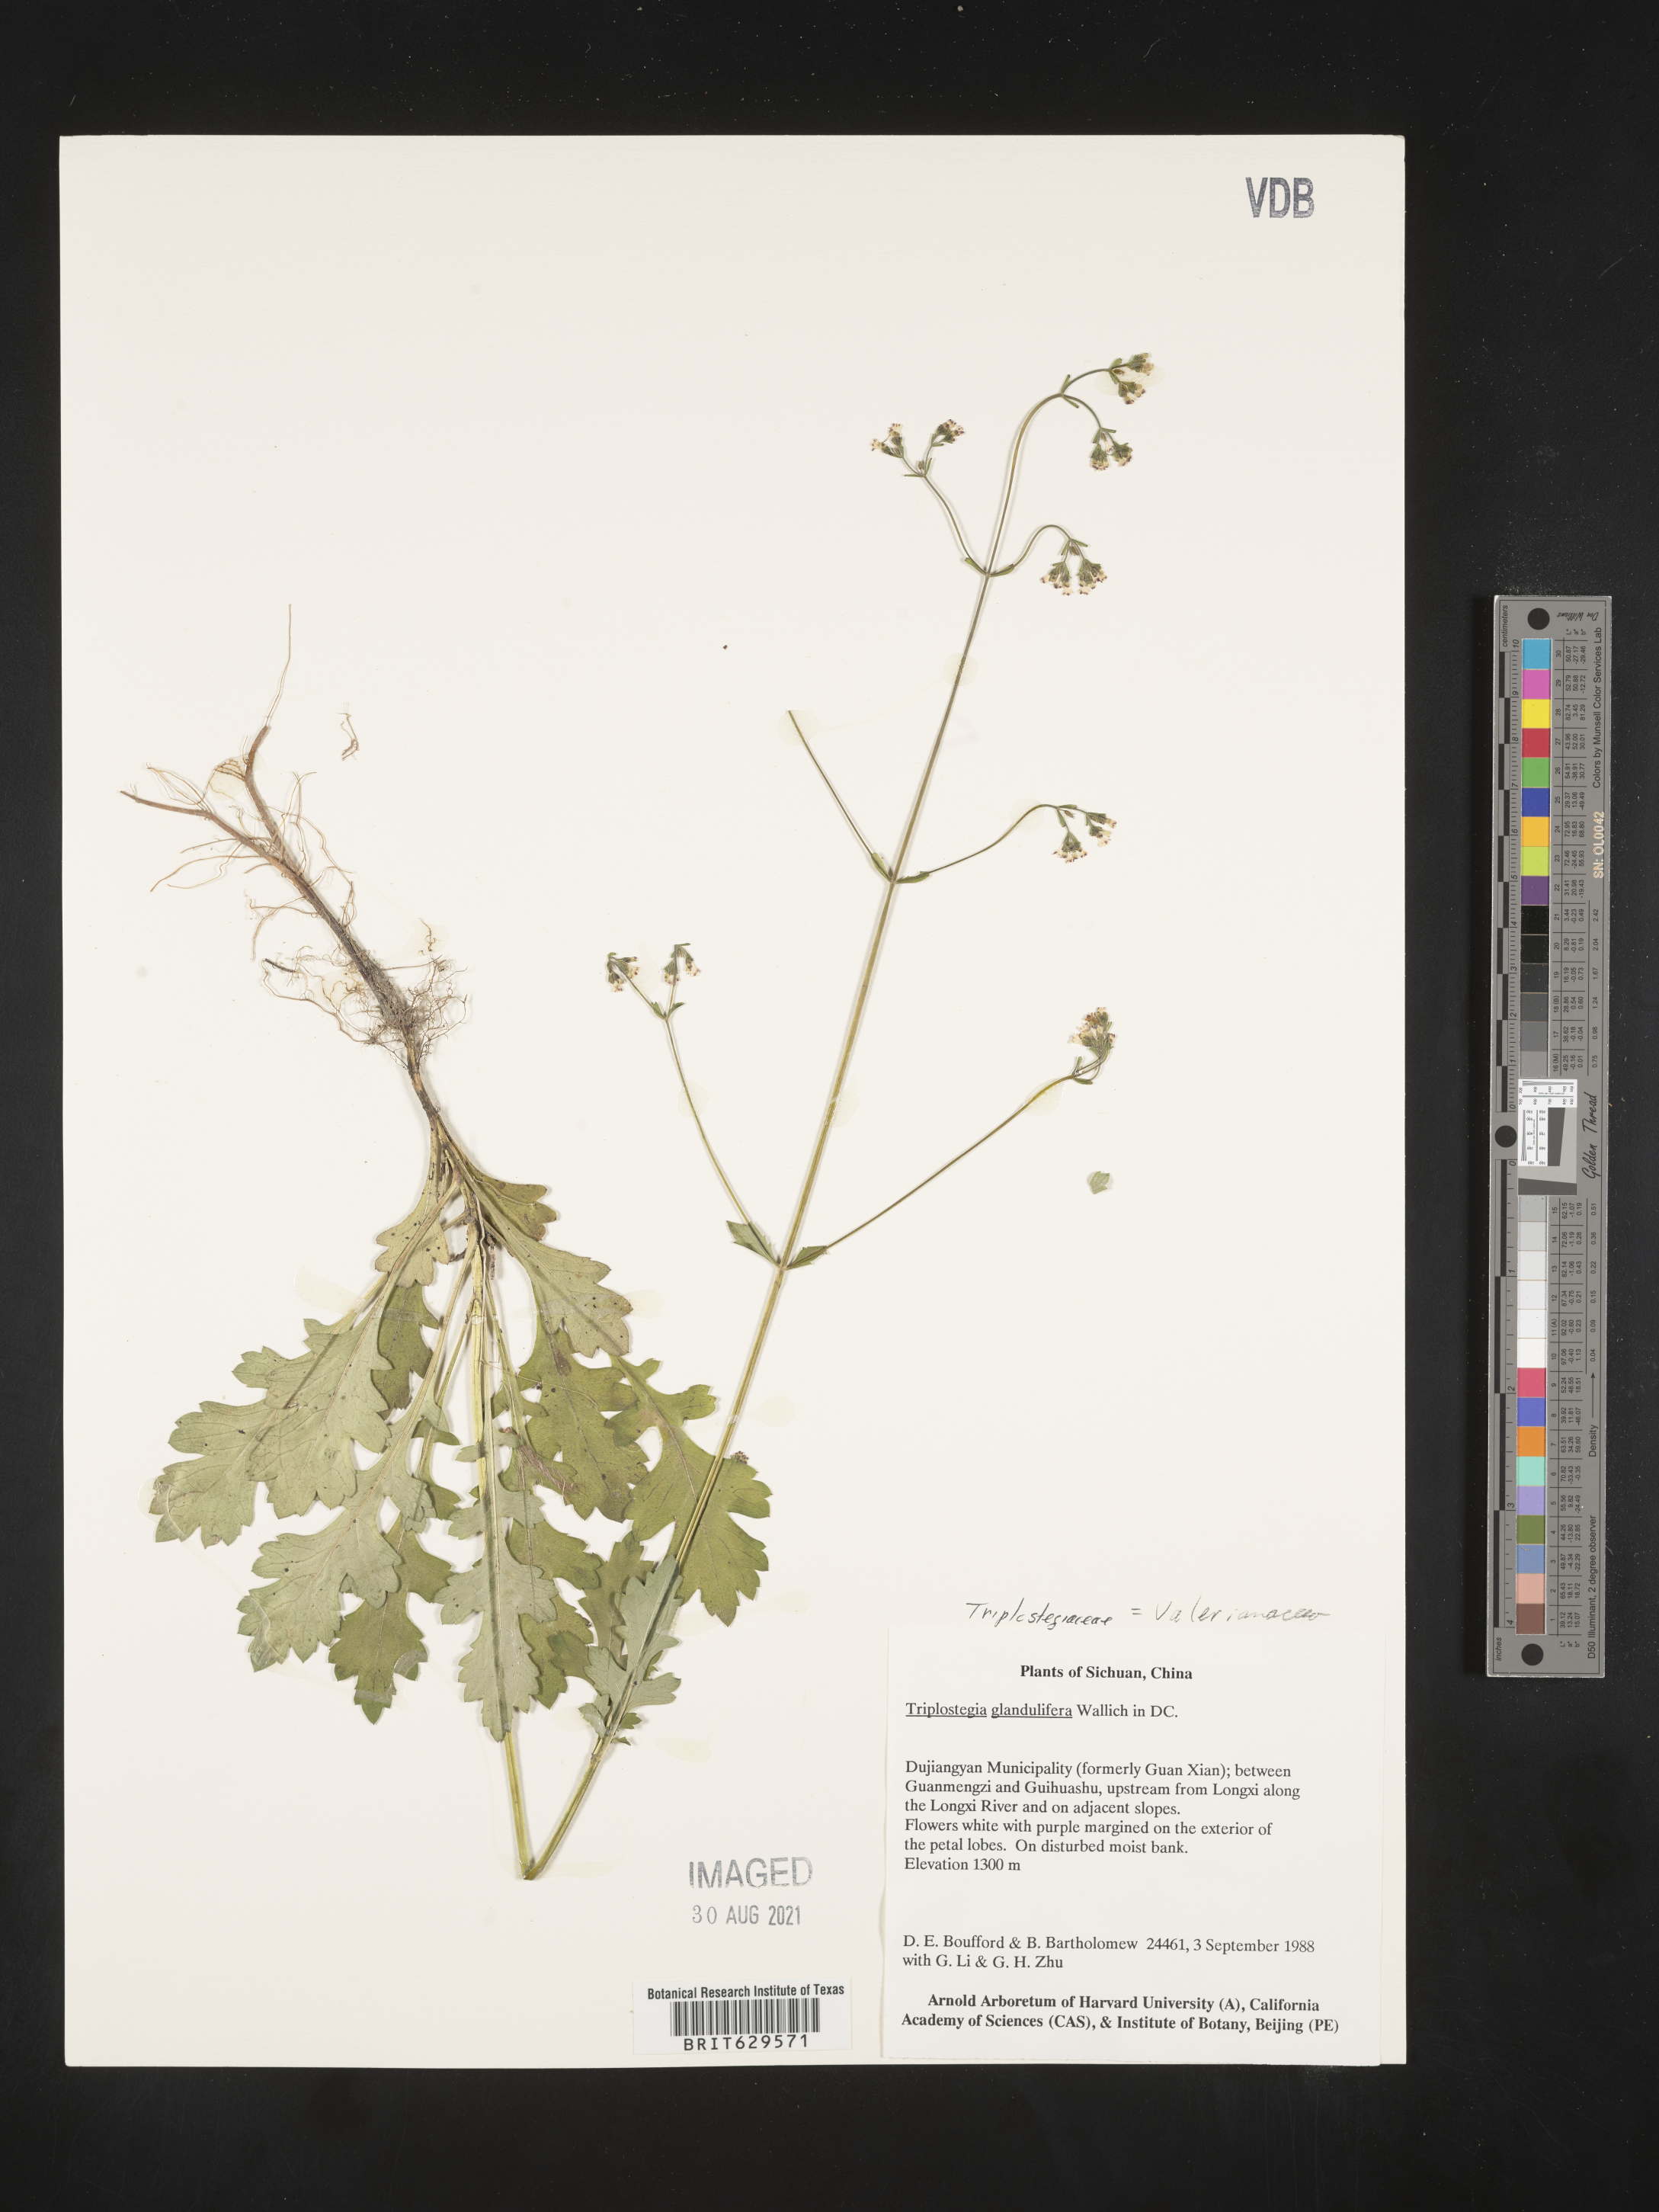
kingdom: Plantae
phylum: Tracheophyta
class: Magnoliopsida
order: Dipsacales
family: Caprifoliaceae
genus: Triplostegia
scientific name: Triplostegia
